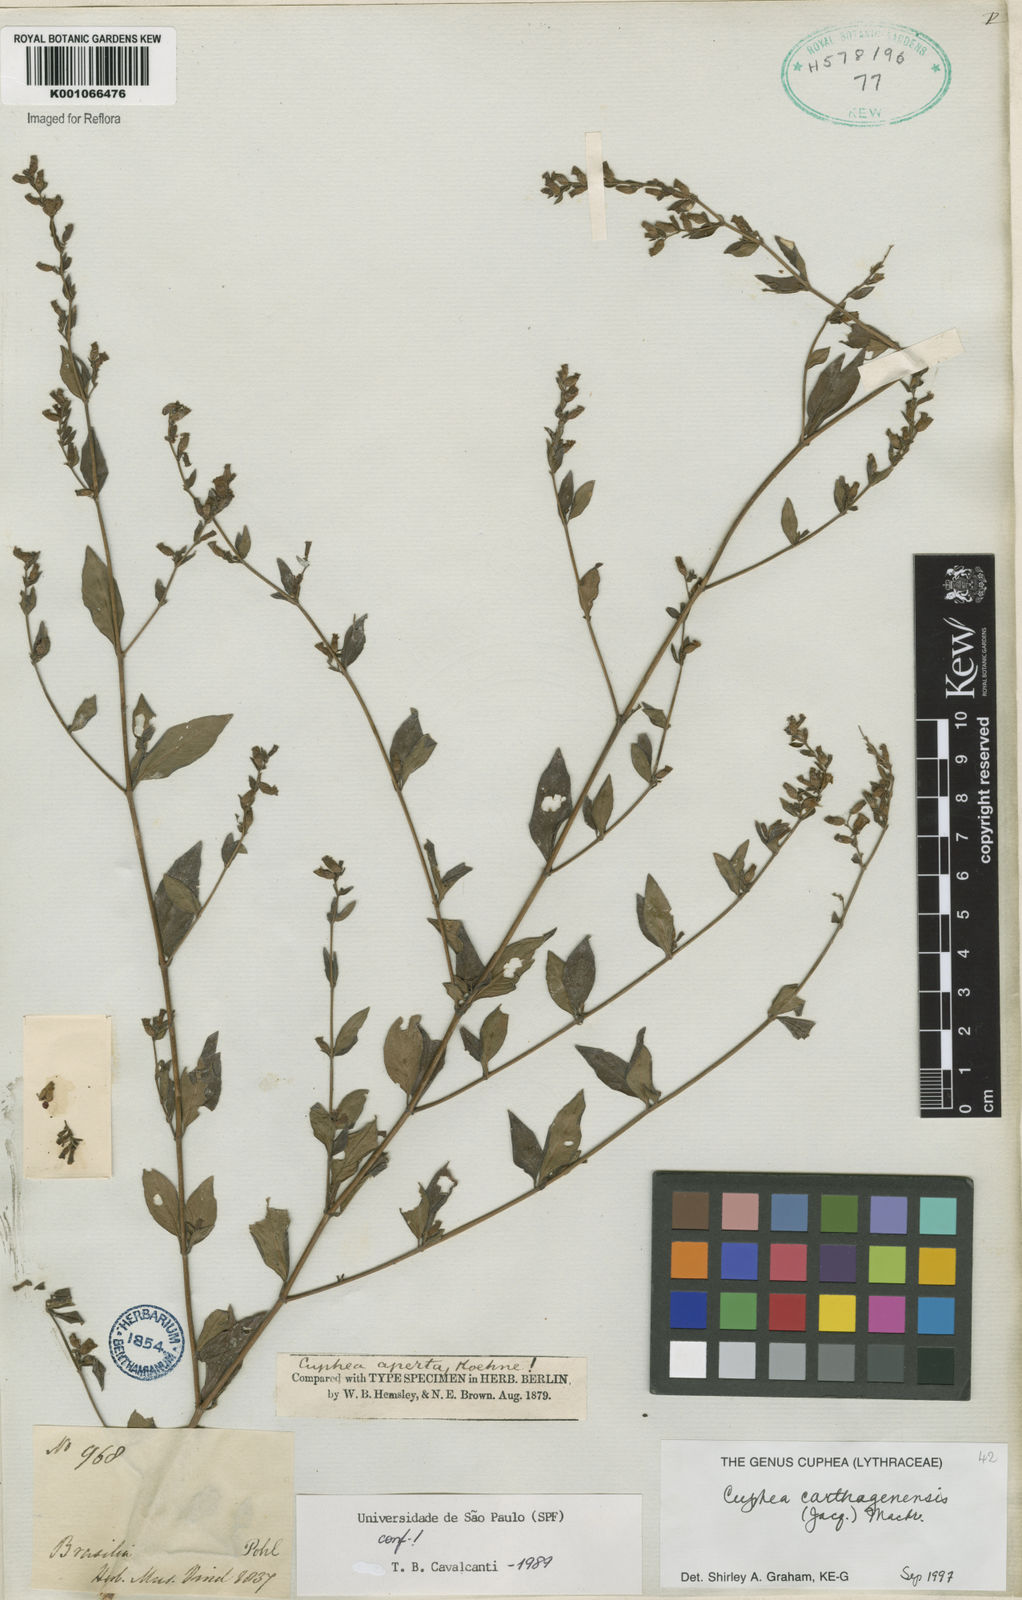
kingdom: Plantae
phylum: Tracheophyta
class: Magnoliopsida
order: Myrtales
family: Lythraceae
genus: Cuphea
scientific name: Cuphea carthagenensis
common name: Colombian waxweed
